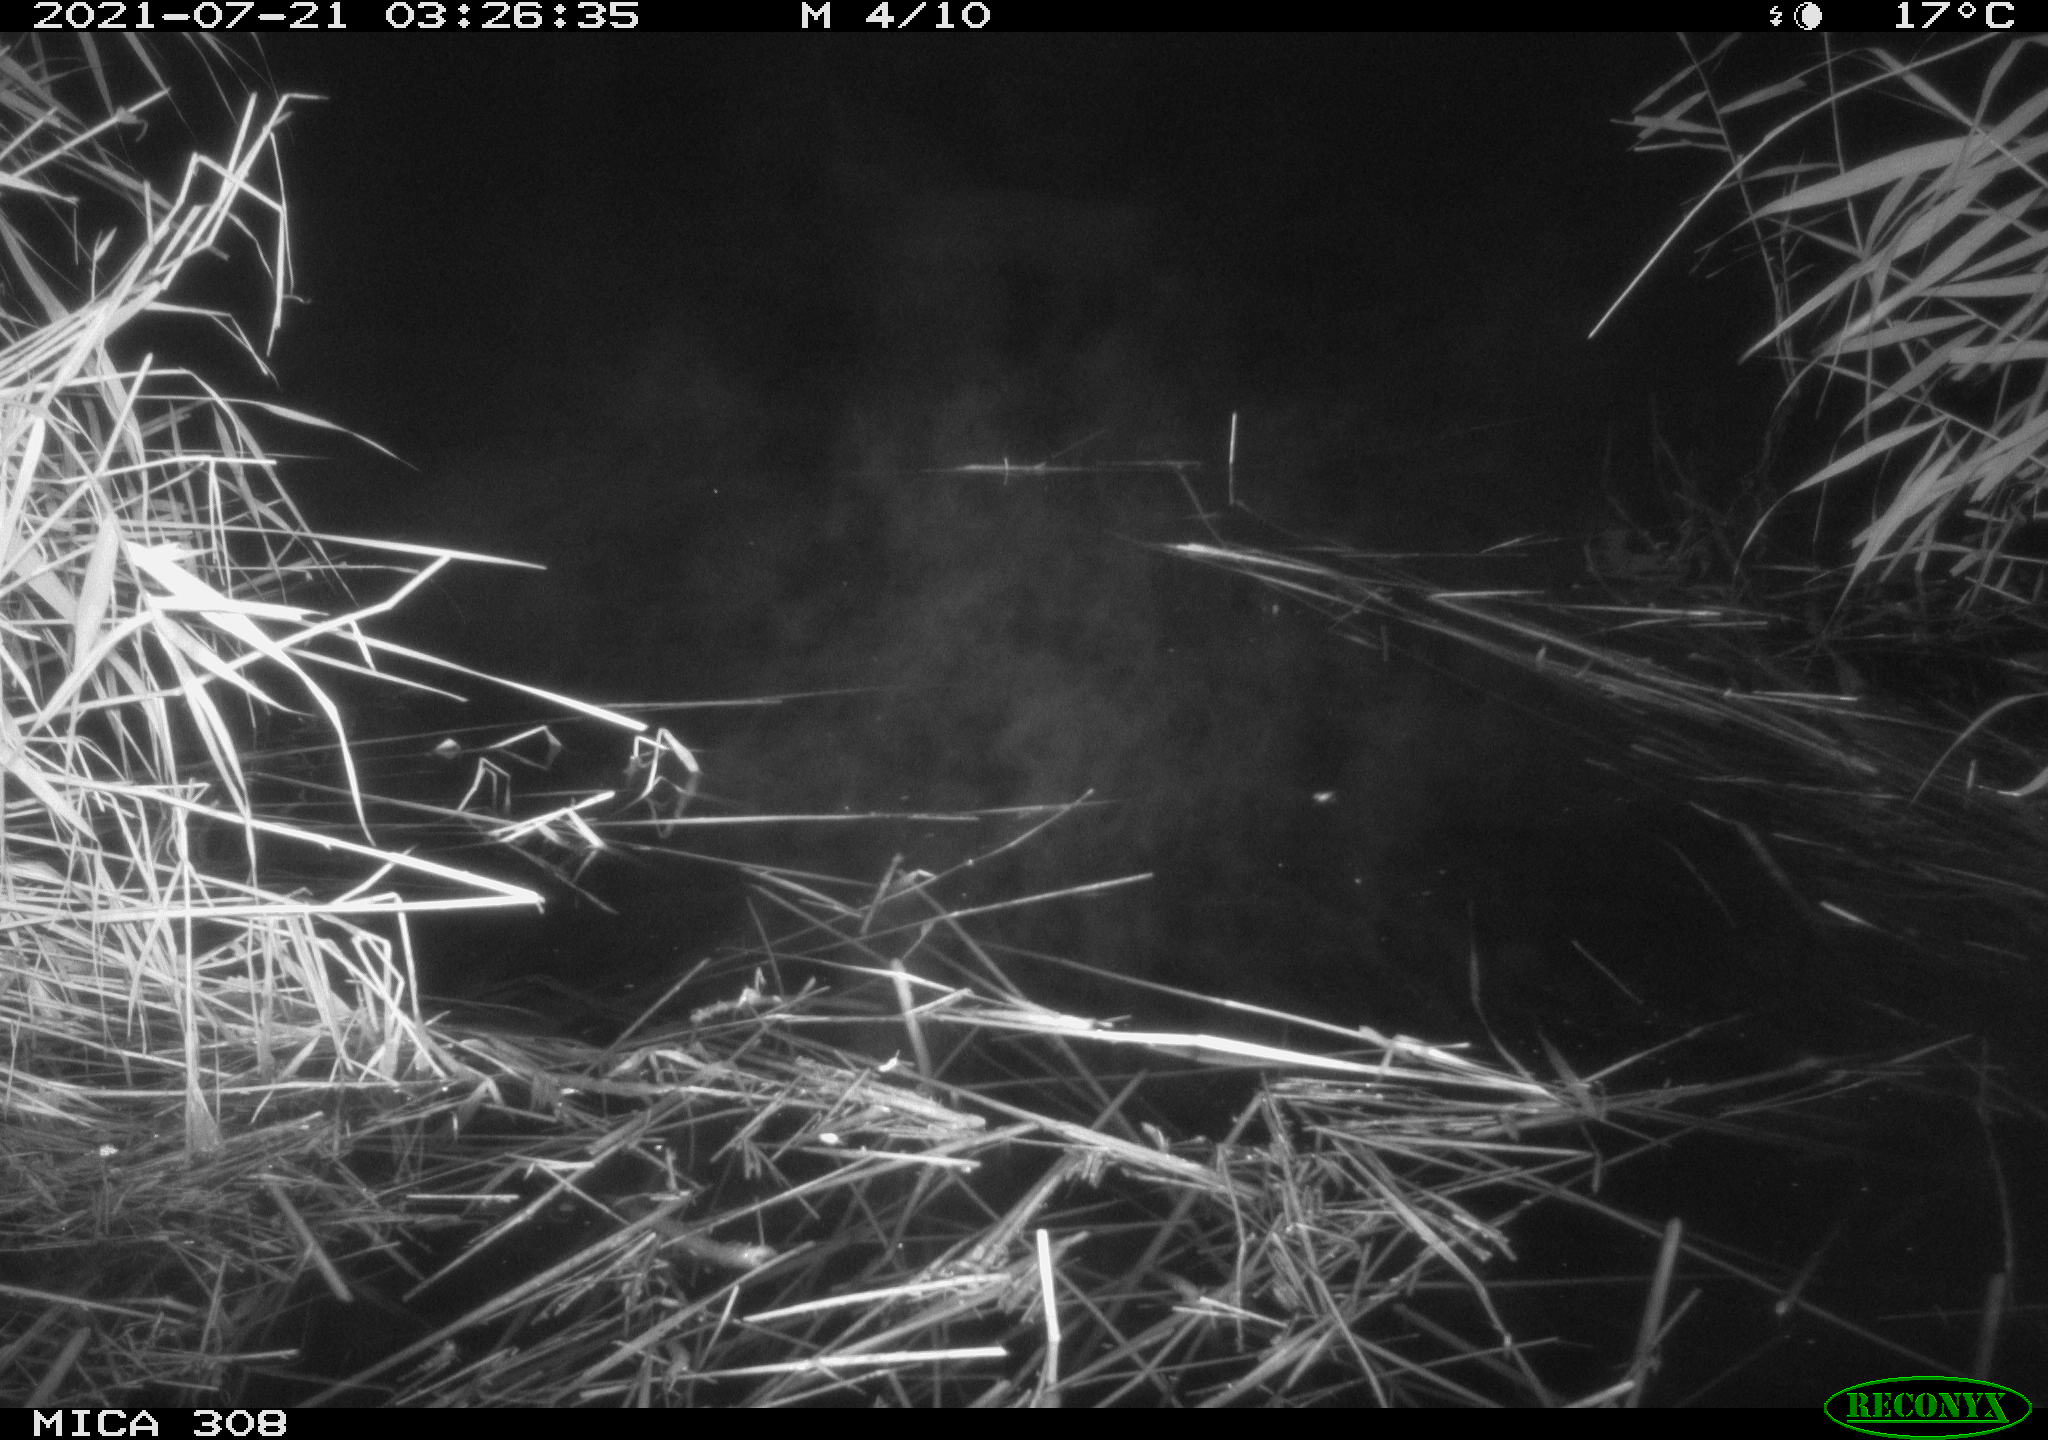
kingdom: Animalia
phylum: Chordata
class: Aves
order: Anseriformes
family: Anatidae
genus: Anas
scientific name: Anas platyrhynchos
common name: Mallard
